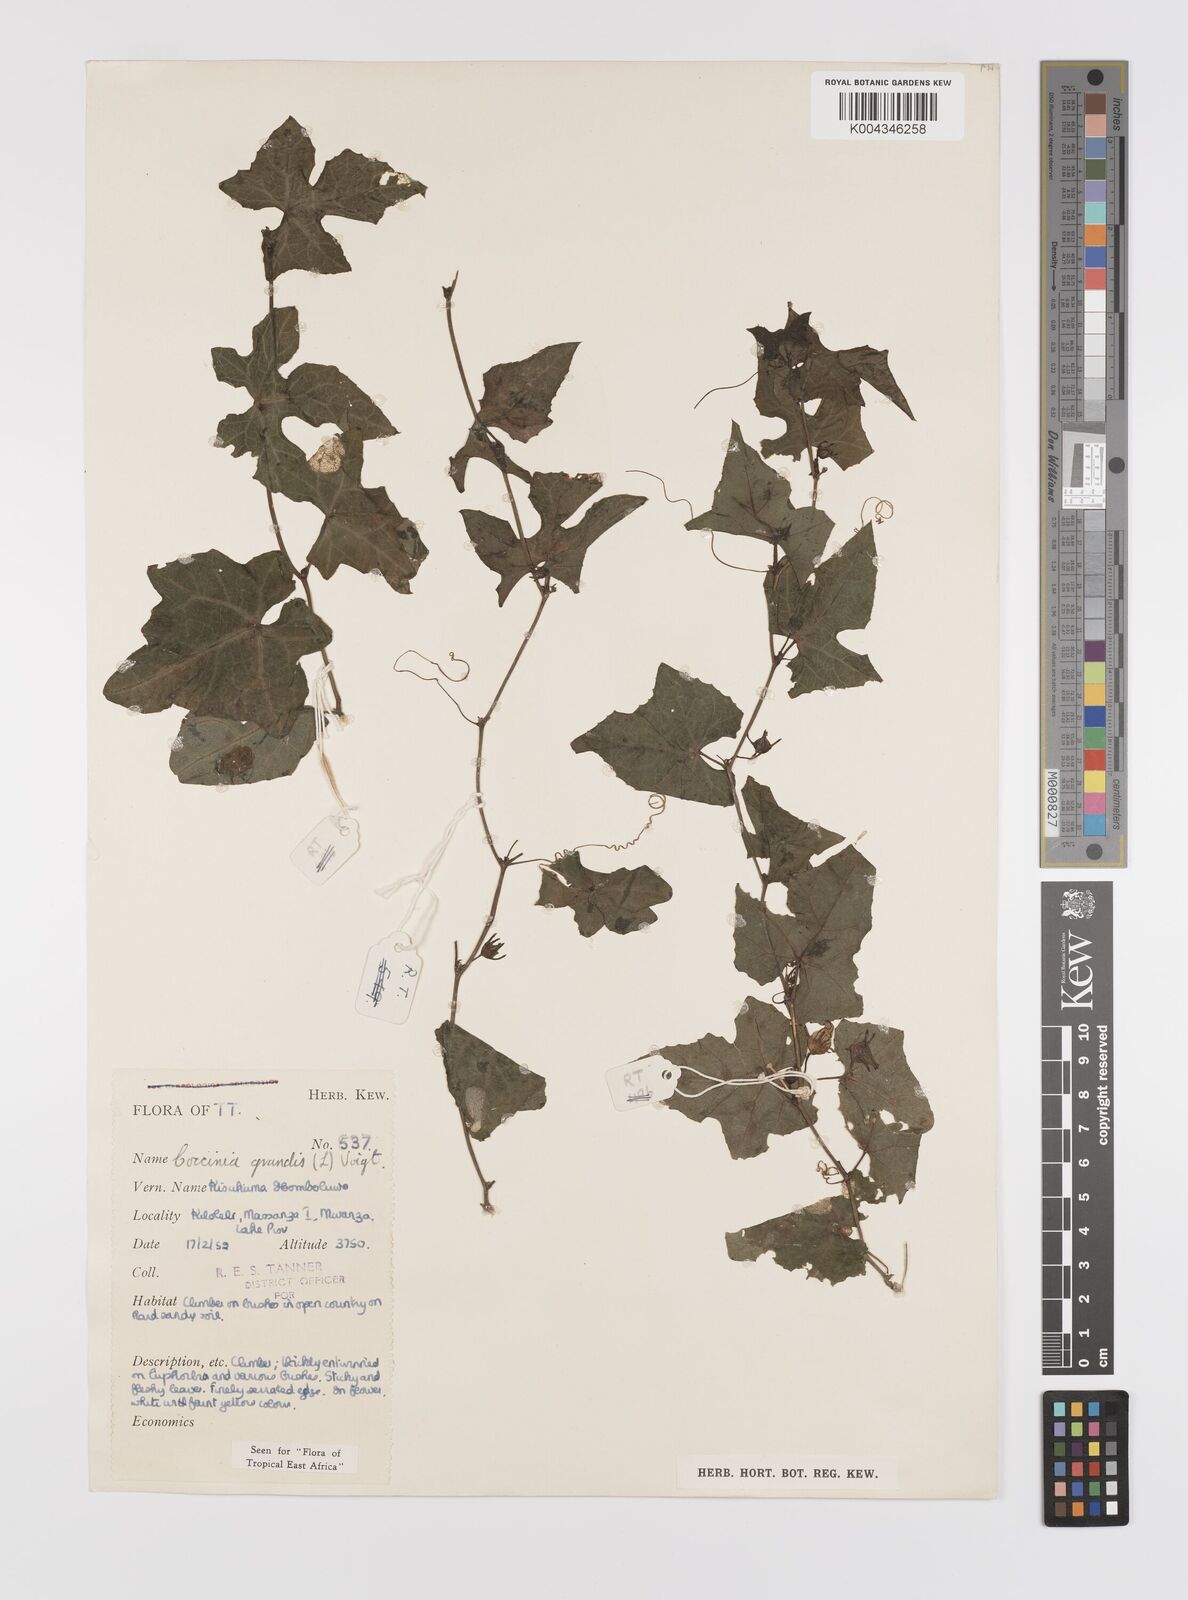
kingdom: Plantae
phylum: Tracheophyta
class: Magnoliopsida
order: Cucurbitales
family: Cucurbitaceae
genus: Coccinia
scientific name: Coccinia grandis
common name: Ivy gourd
